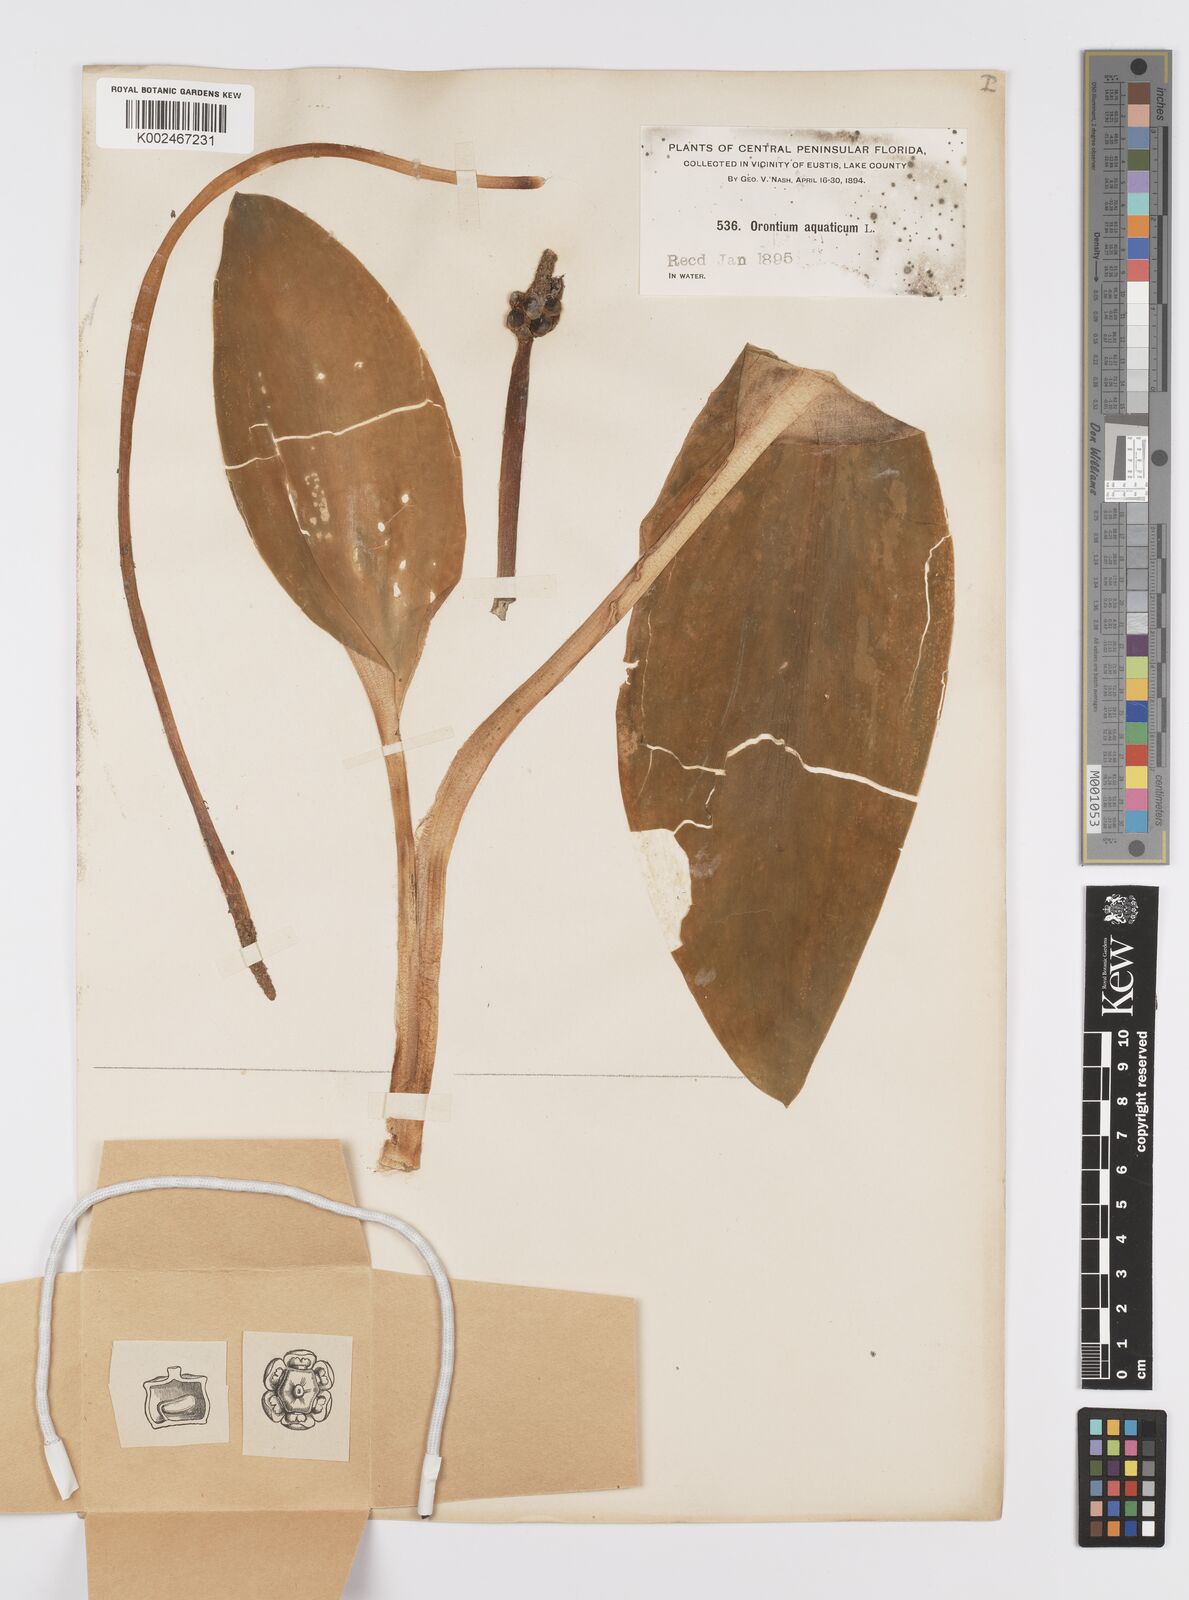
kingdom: Plantae
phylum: Tracheophyta
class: Liliopsida
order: Alismatales
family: Araceae
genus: Orontium
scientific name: Orontium aquaticum
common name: Golden-club
